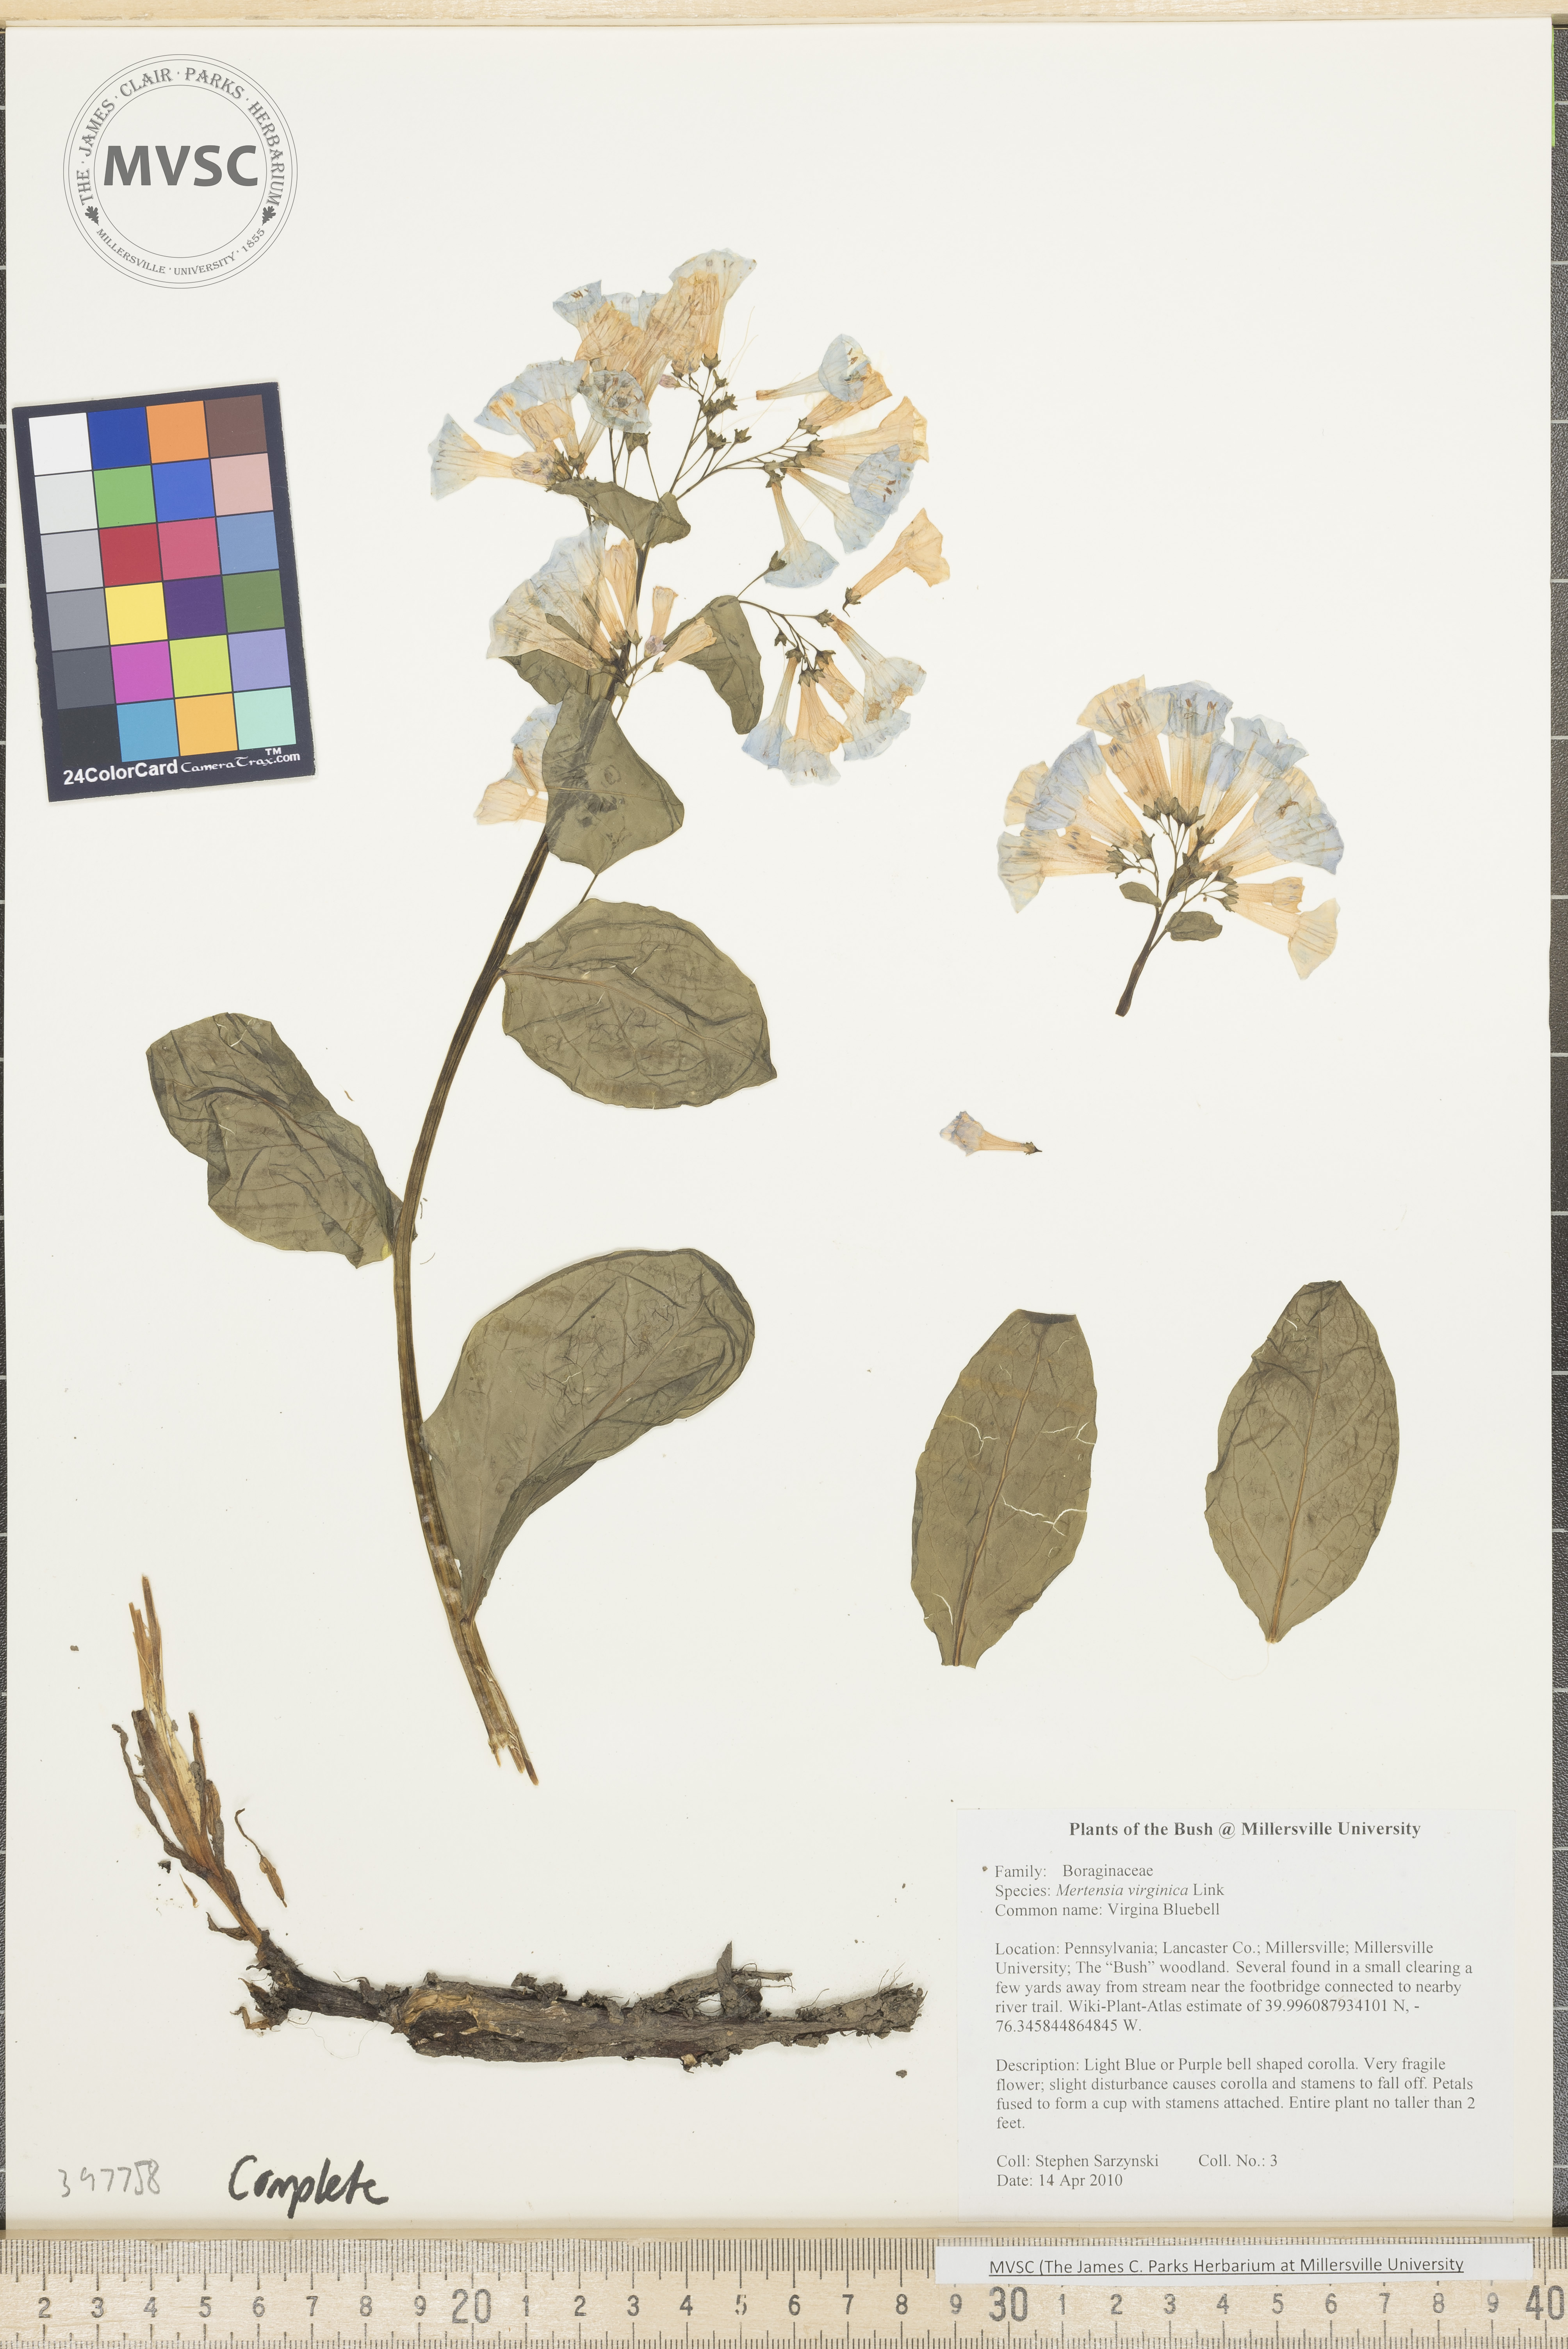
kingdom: Plantae
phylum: Tracheophyta
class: Magnoliopsida
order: Boraginales
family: Boraginaceae
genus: Mertensia
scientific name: Mertensia virginica
